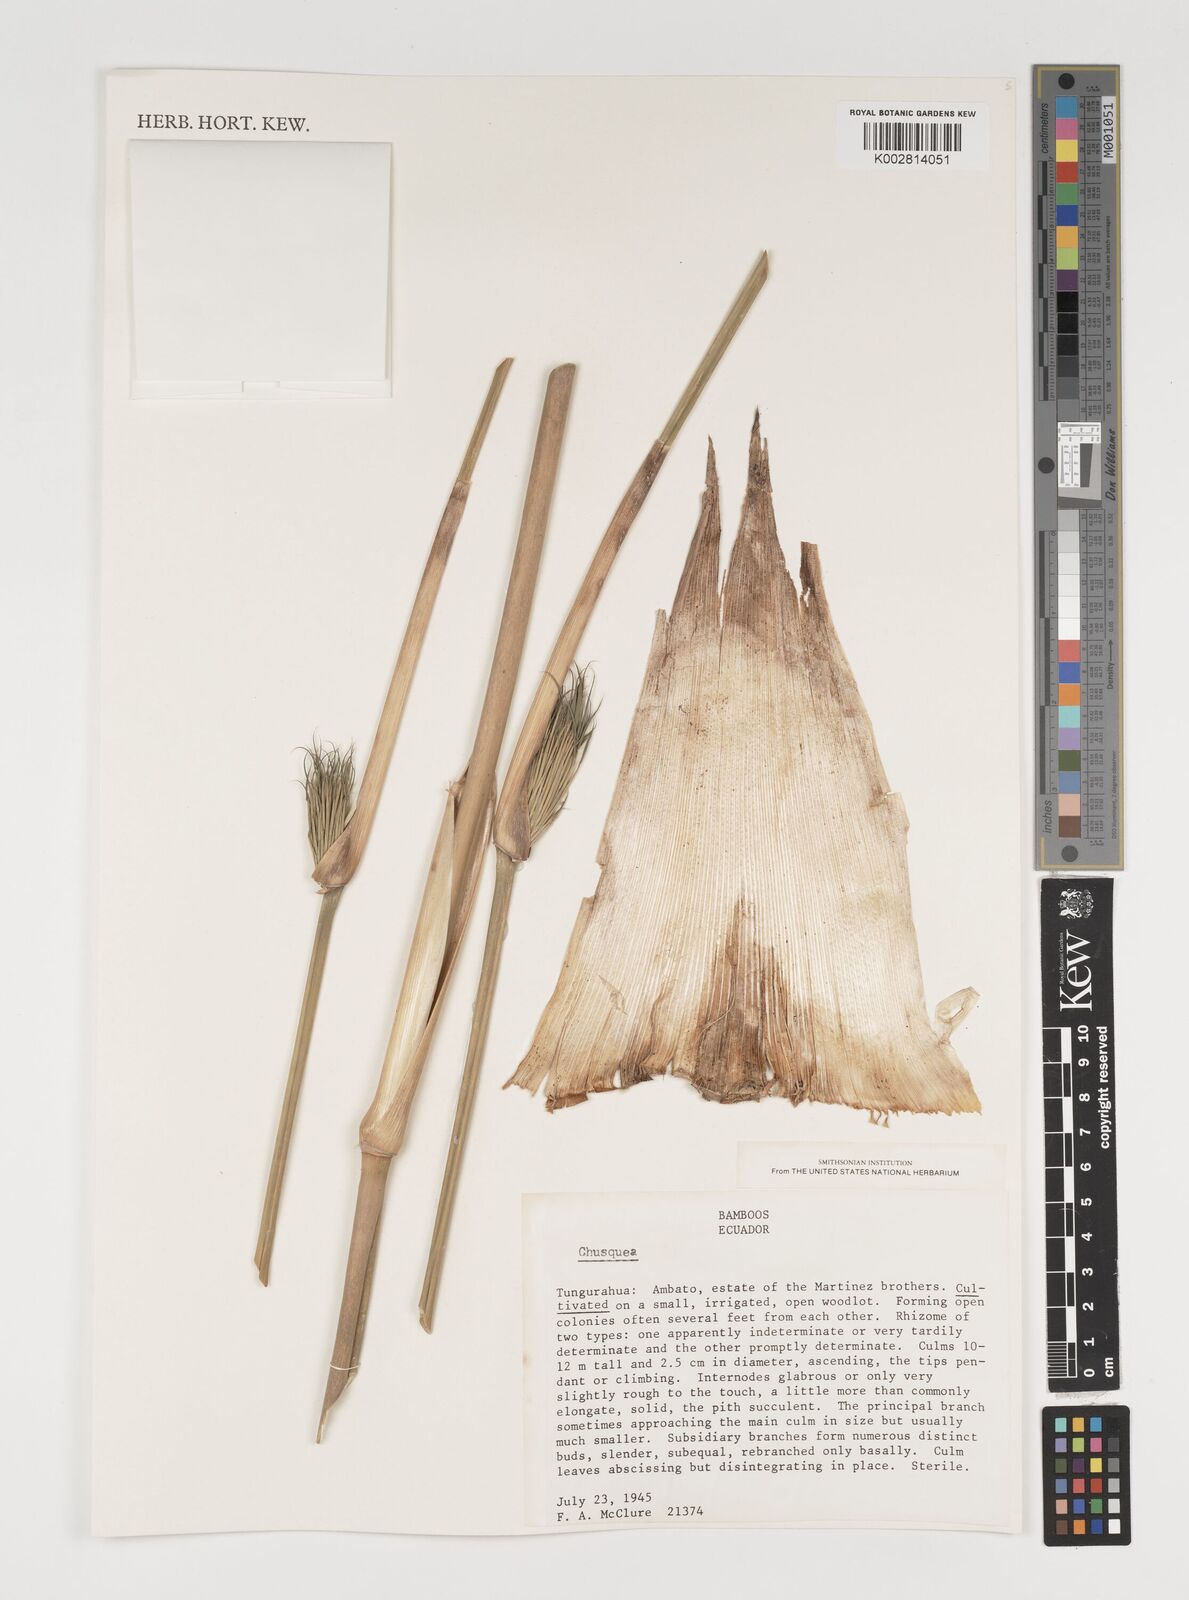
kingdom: Plantae
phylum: Tracheophyta
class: Liliopsida
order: Poales
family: Poaceae
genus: Chusquea
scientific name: Chusquea
